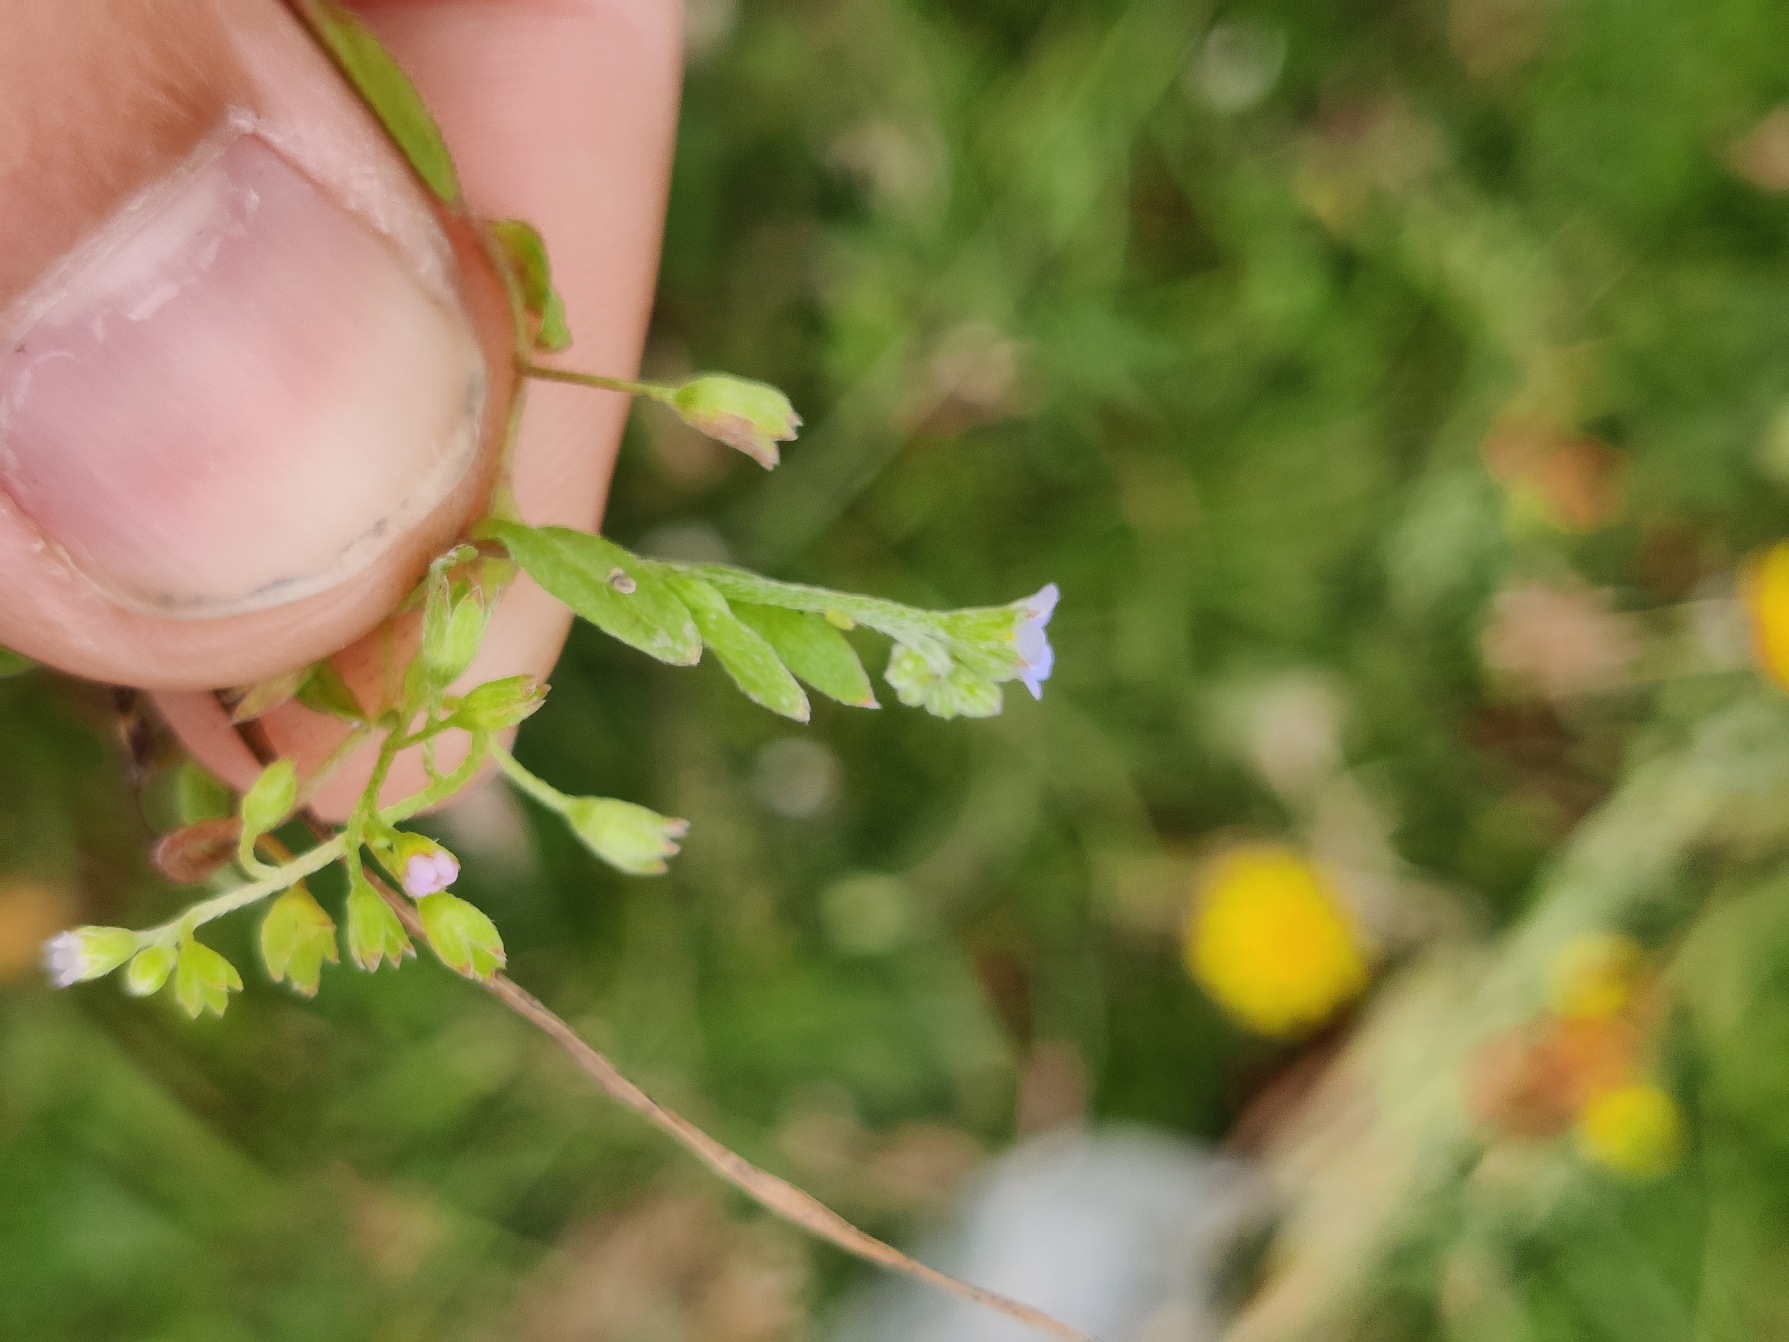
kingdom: Plantae
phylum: Tracheophyta
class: Magnoliopsida
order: Boraginales
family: Boraginaceae
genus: Myosotis
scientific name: Myosotis laxa
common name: Sump-forglemmigej
